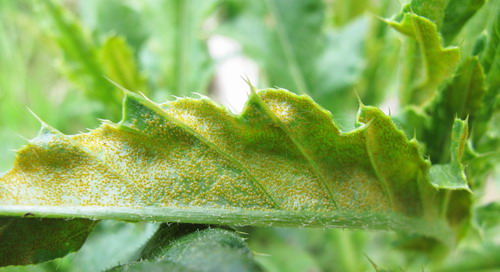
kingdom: Fungi
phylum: Basidiomycota
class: Pucciniomycetes
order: Pucciniales
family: Pucciniaceae
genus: Puccinia
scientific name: Puccinia suaveolens
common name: tidsel-tvecellerust
